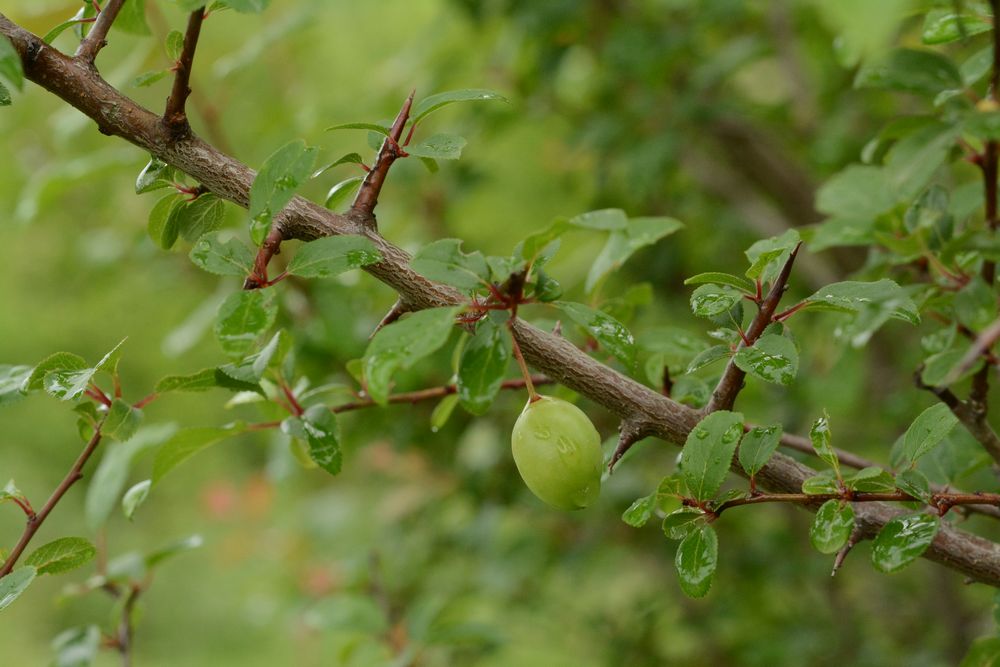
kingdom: Plantae
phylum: Tracheophyta
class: Magnoliopsida
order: Rosales
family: Rosaceae
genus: Prunus
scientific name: Prunus spinosa
